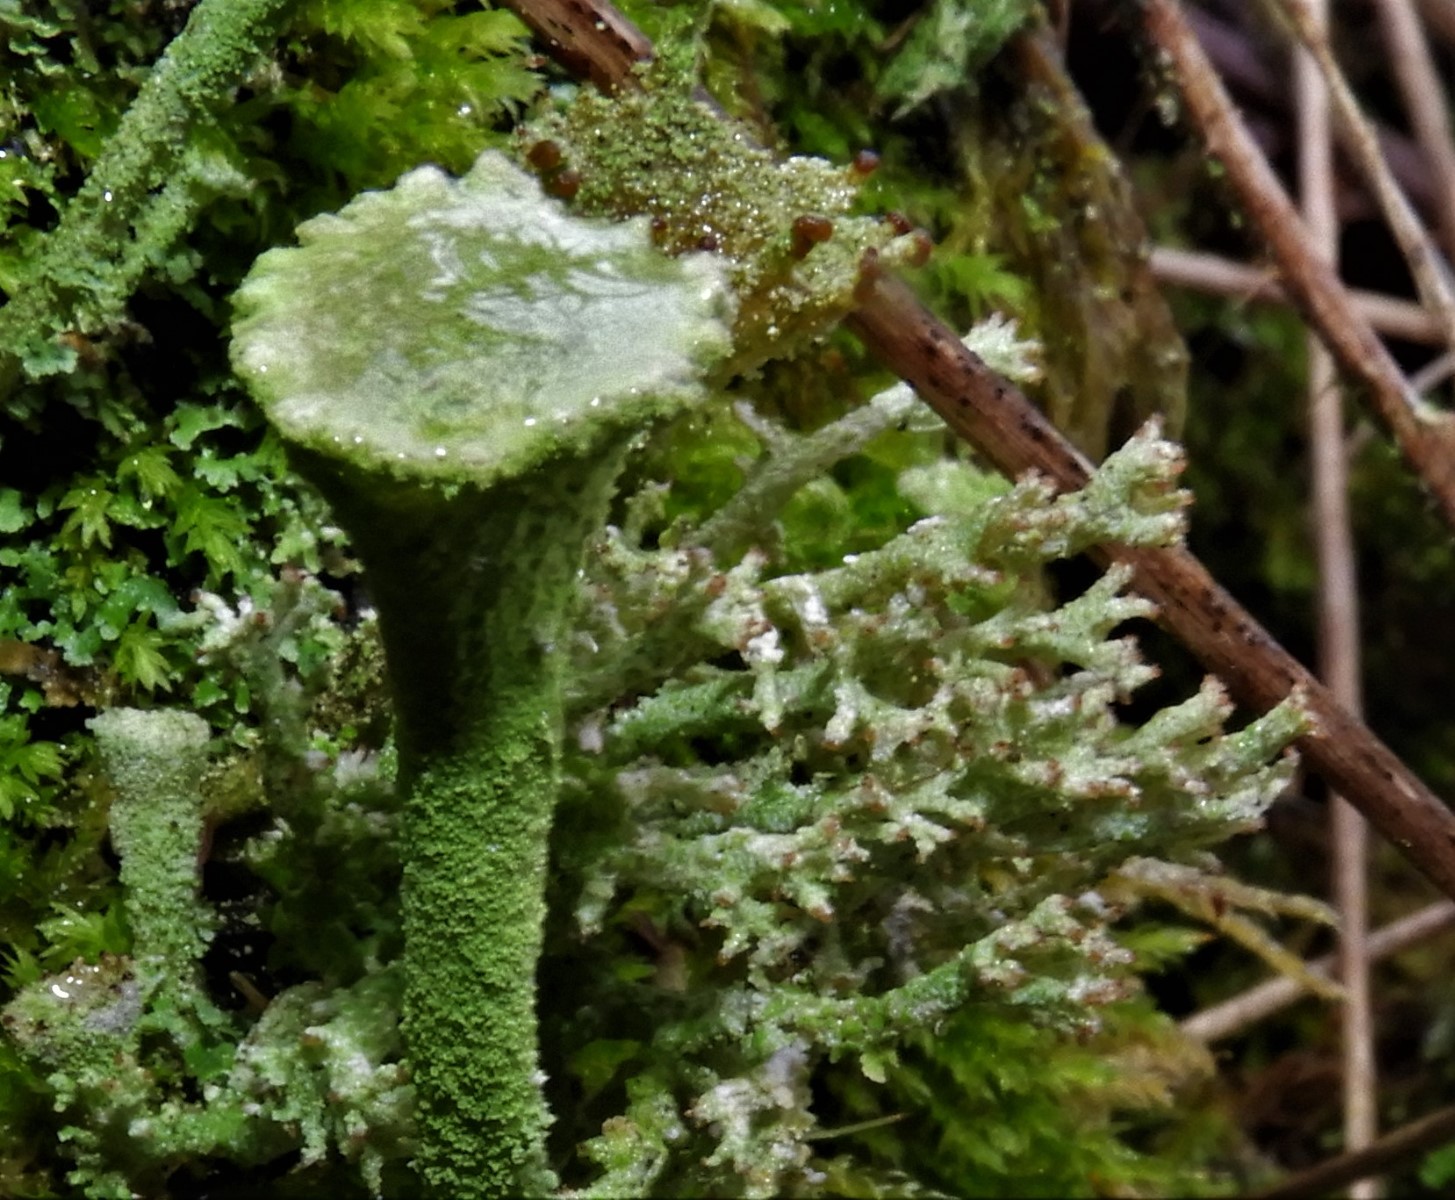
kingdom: Fungi
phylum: Ascomycota
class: Lecanoromycetes
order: Lecanorales
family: Cladoniaceae
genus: Cladonia
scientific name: Cladonia
